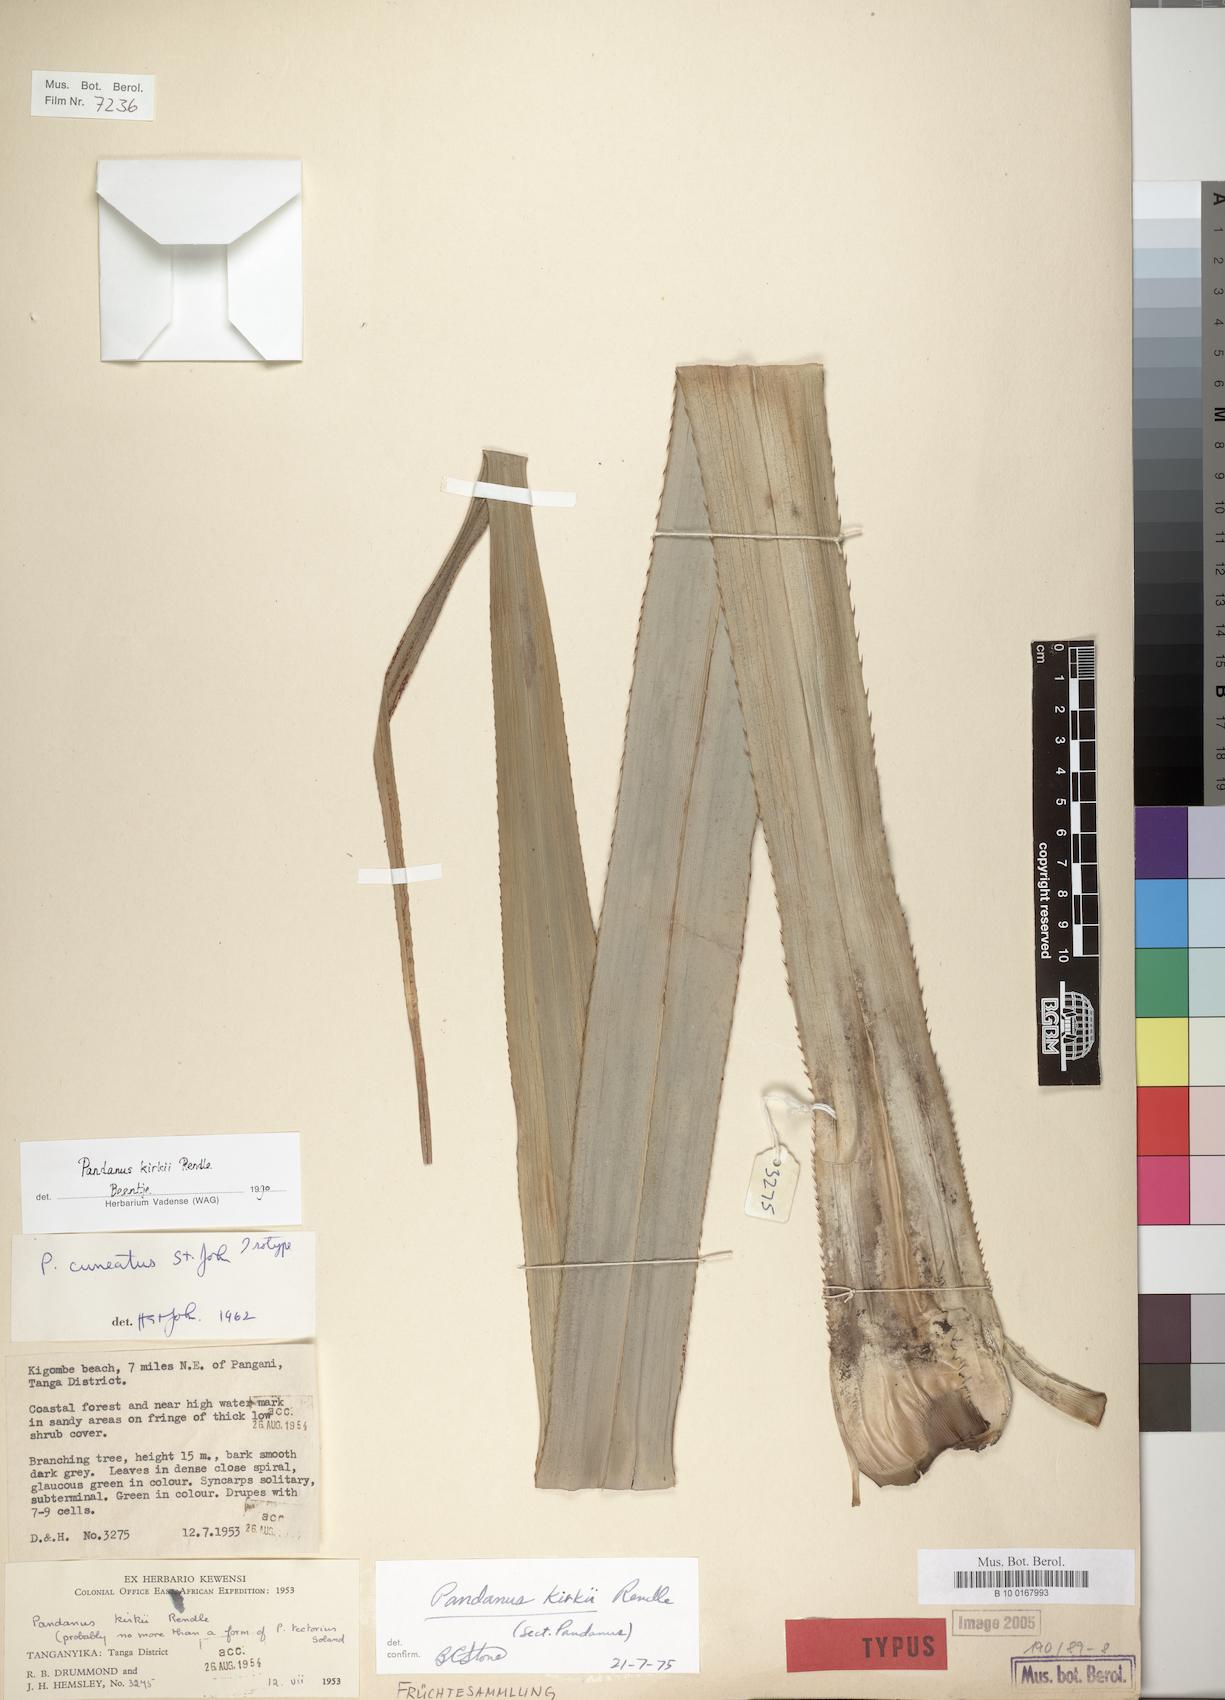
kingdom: Plantae
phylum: Tracheophyta
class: Liliopsida
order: Pandanales
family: Pandanaceae
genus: Pandanus
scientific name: Pandanus kirkii
